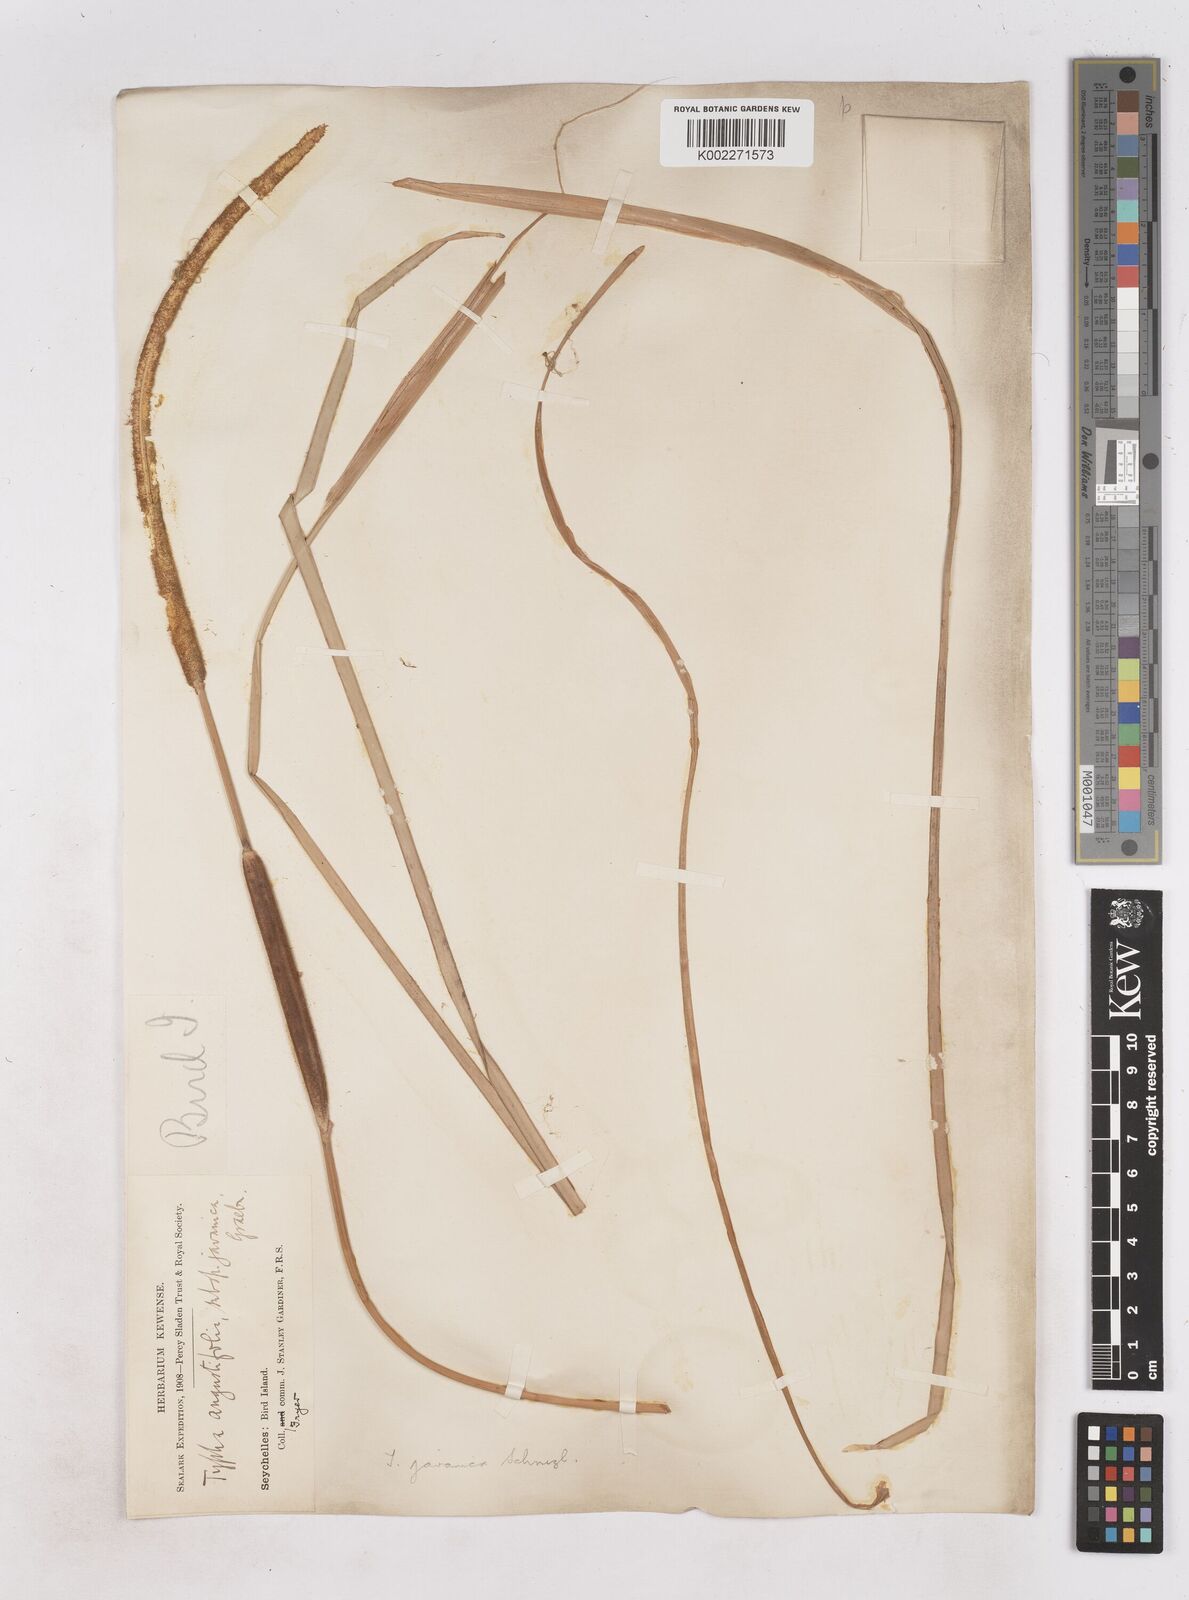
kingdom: Plantae
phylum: Tracheophyta
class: Liliopsida
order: Poales
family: Typhaceae
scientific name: Typhaceae
